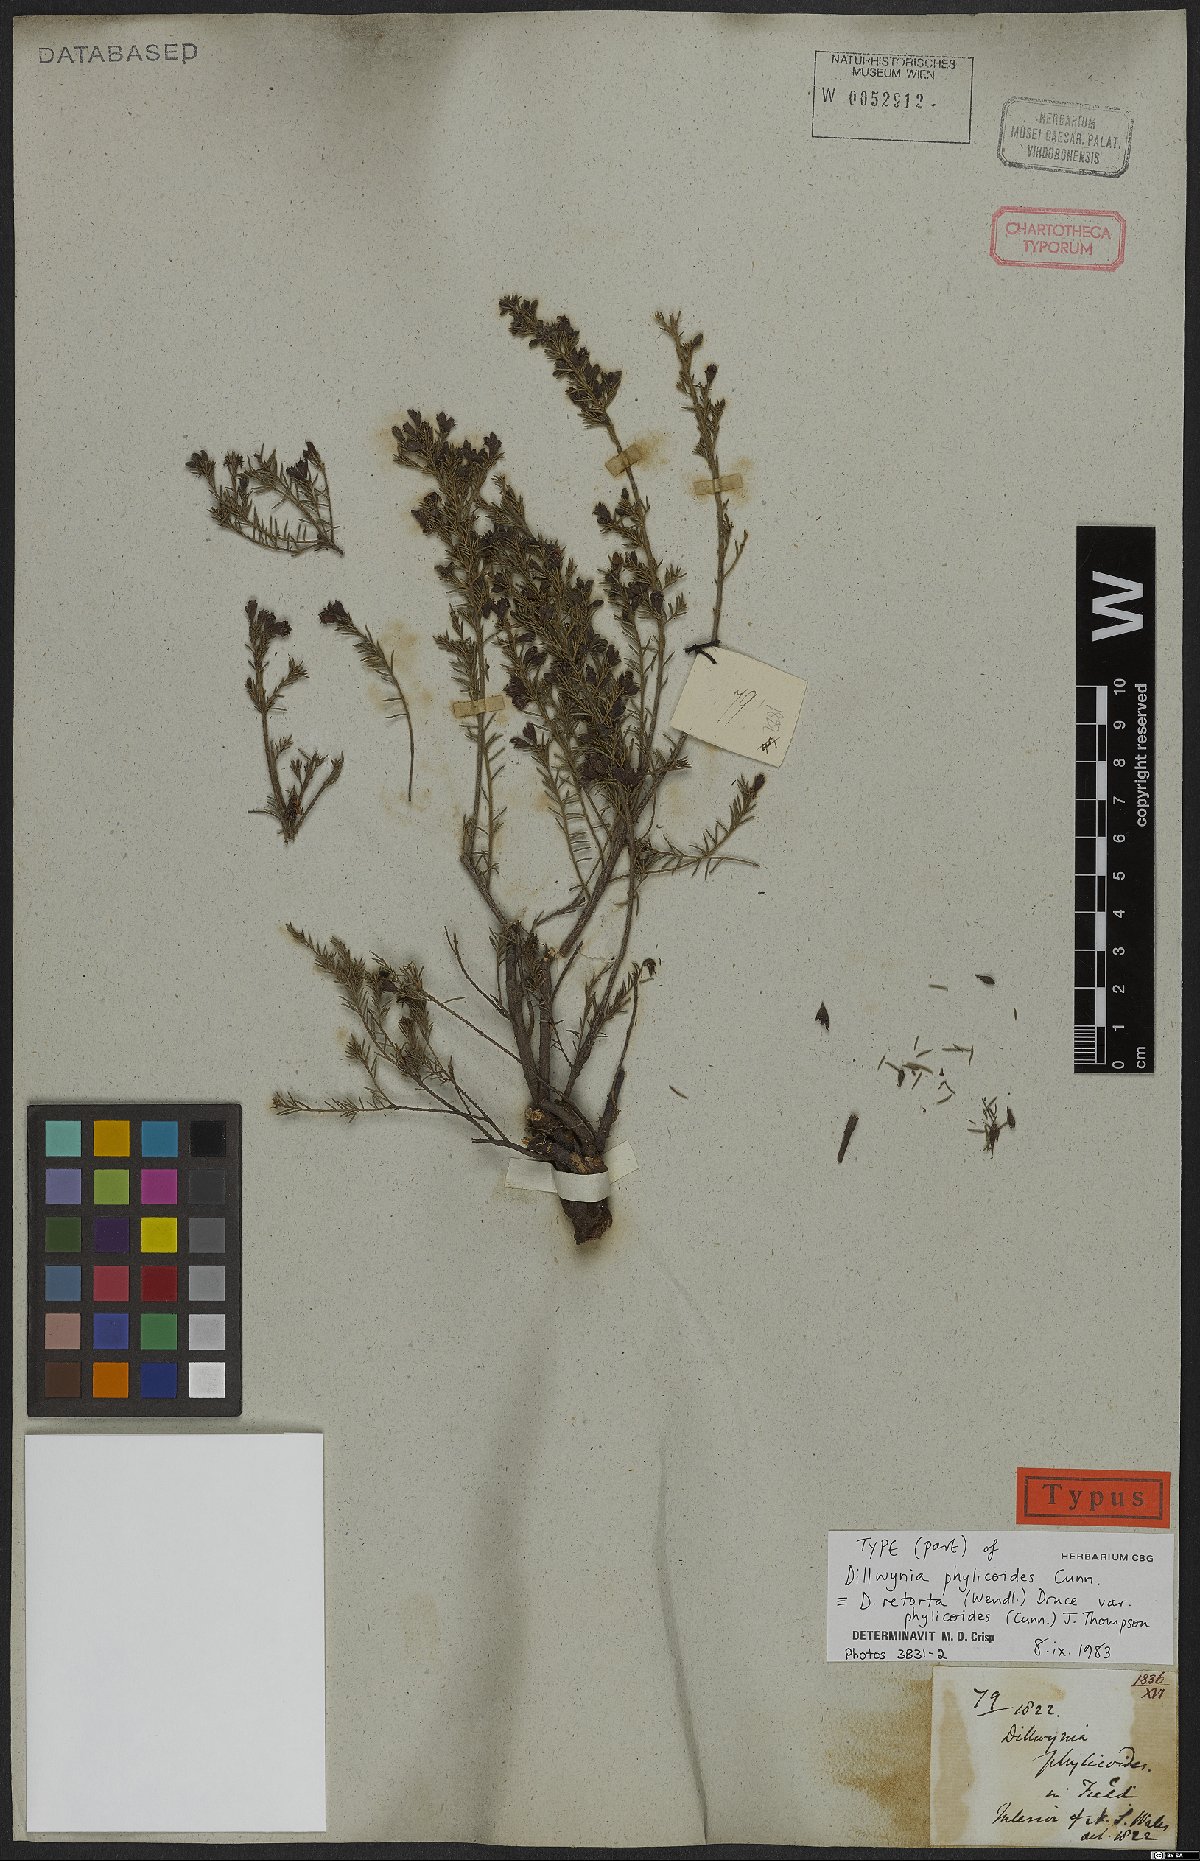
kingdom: Plantae
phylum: Tracheophyta
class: Magnoliopsida
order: Fabales
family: Fabaceae
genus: Dillwynia
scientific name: Dillwynia phylicoides
